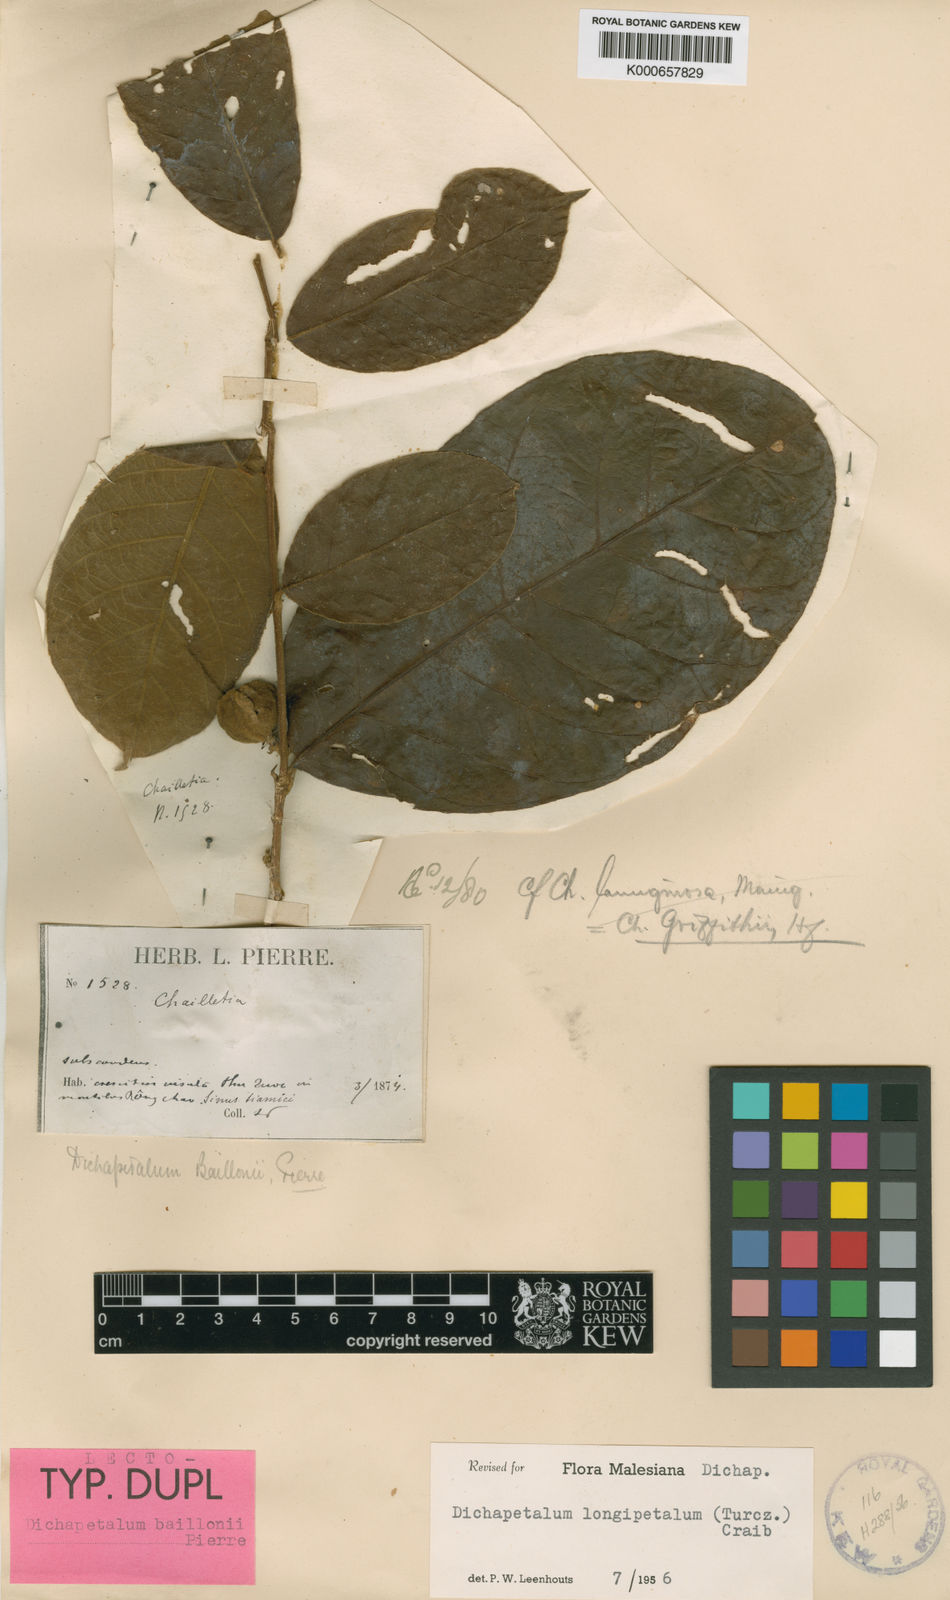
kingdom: Plantae
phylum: Tracheophyta
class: Magnoliopsida
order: Malpighiales
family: Dichapetalaceae
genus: Dichapetalum
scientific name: Dichapetalum
